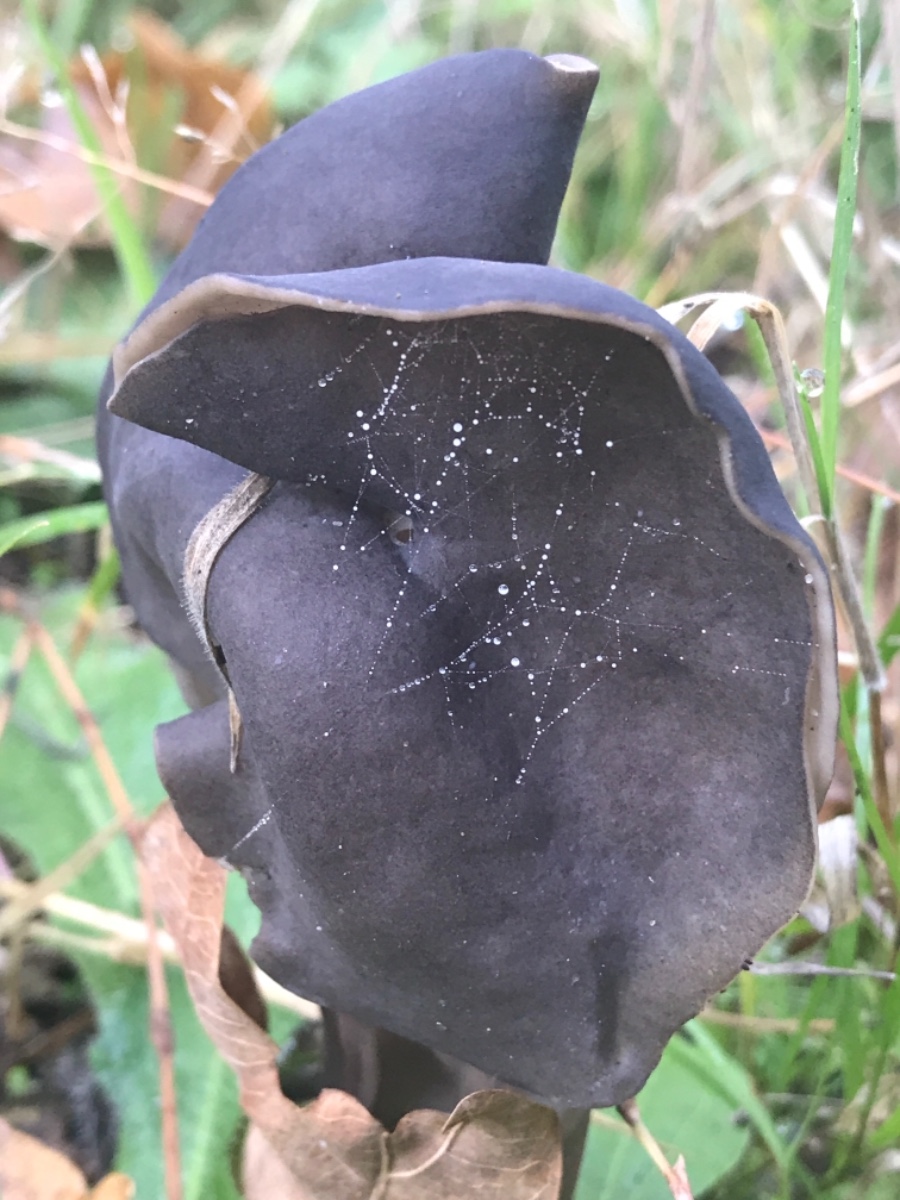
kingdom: Fungi
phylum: Ascomycota
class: Pezizomycetes
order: Pezizales
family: Helvellaceae
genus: Helvella
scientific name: Helvella lacunosa
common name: grubet foldhat
